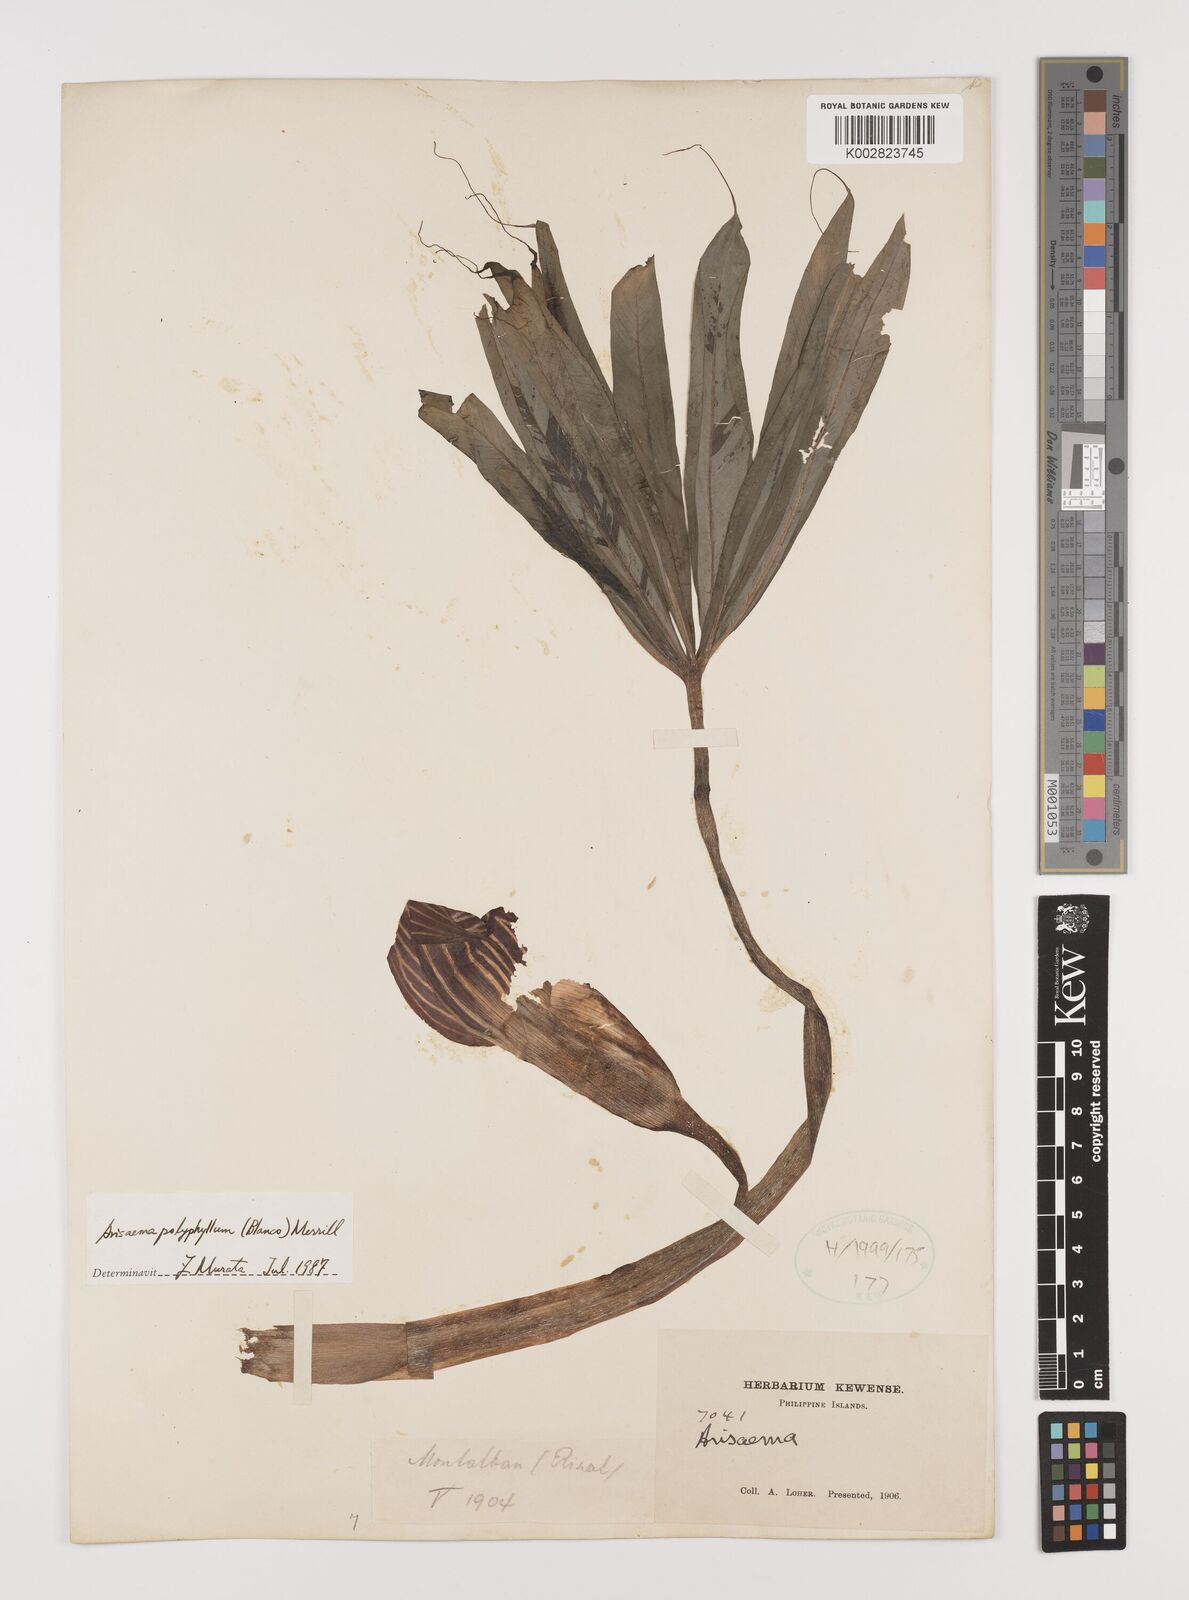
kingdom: Plantae
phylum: Tracheophyta
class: Liliopsida
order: Alismatales
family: Araceae
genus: Arisaema
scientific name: Arisaema polyphyllum
